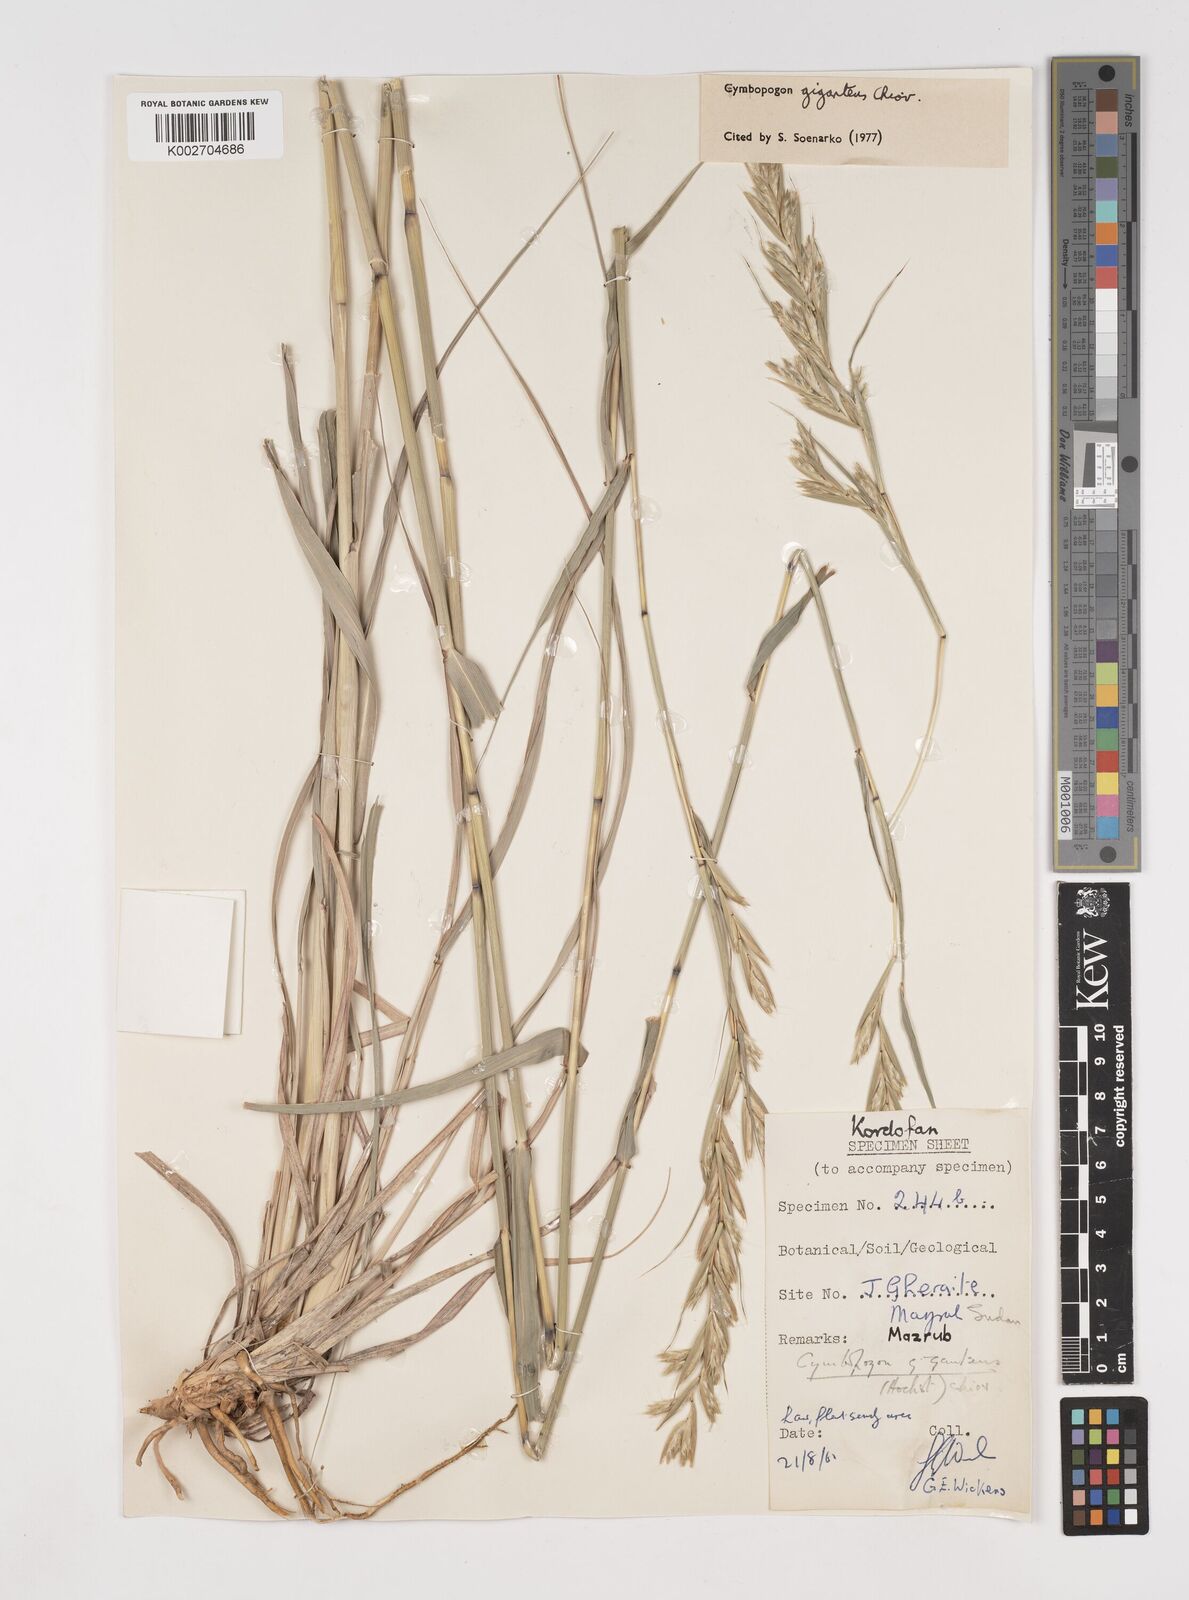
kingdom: Plantae
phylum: Tracheophyta
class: Liliopsida
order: Poales
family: Poaceae
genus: Cymbopogon
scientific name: Cymbopogon giganteus
